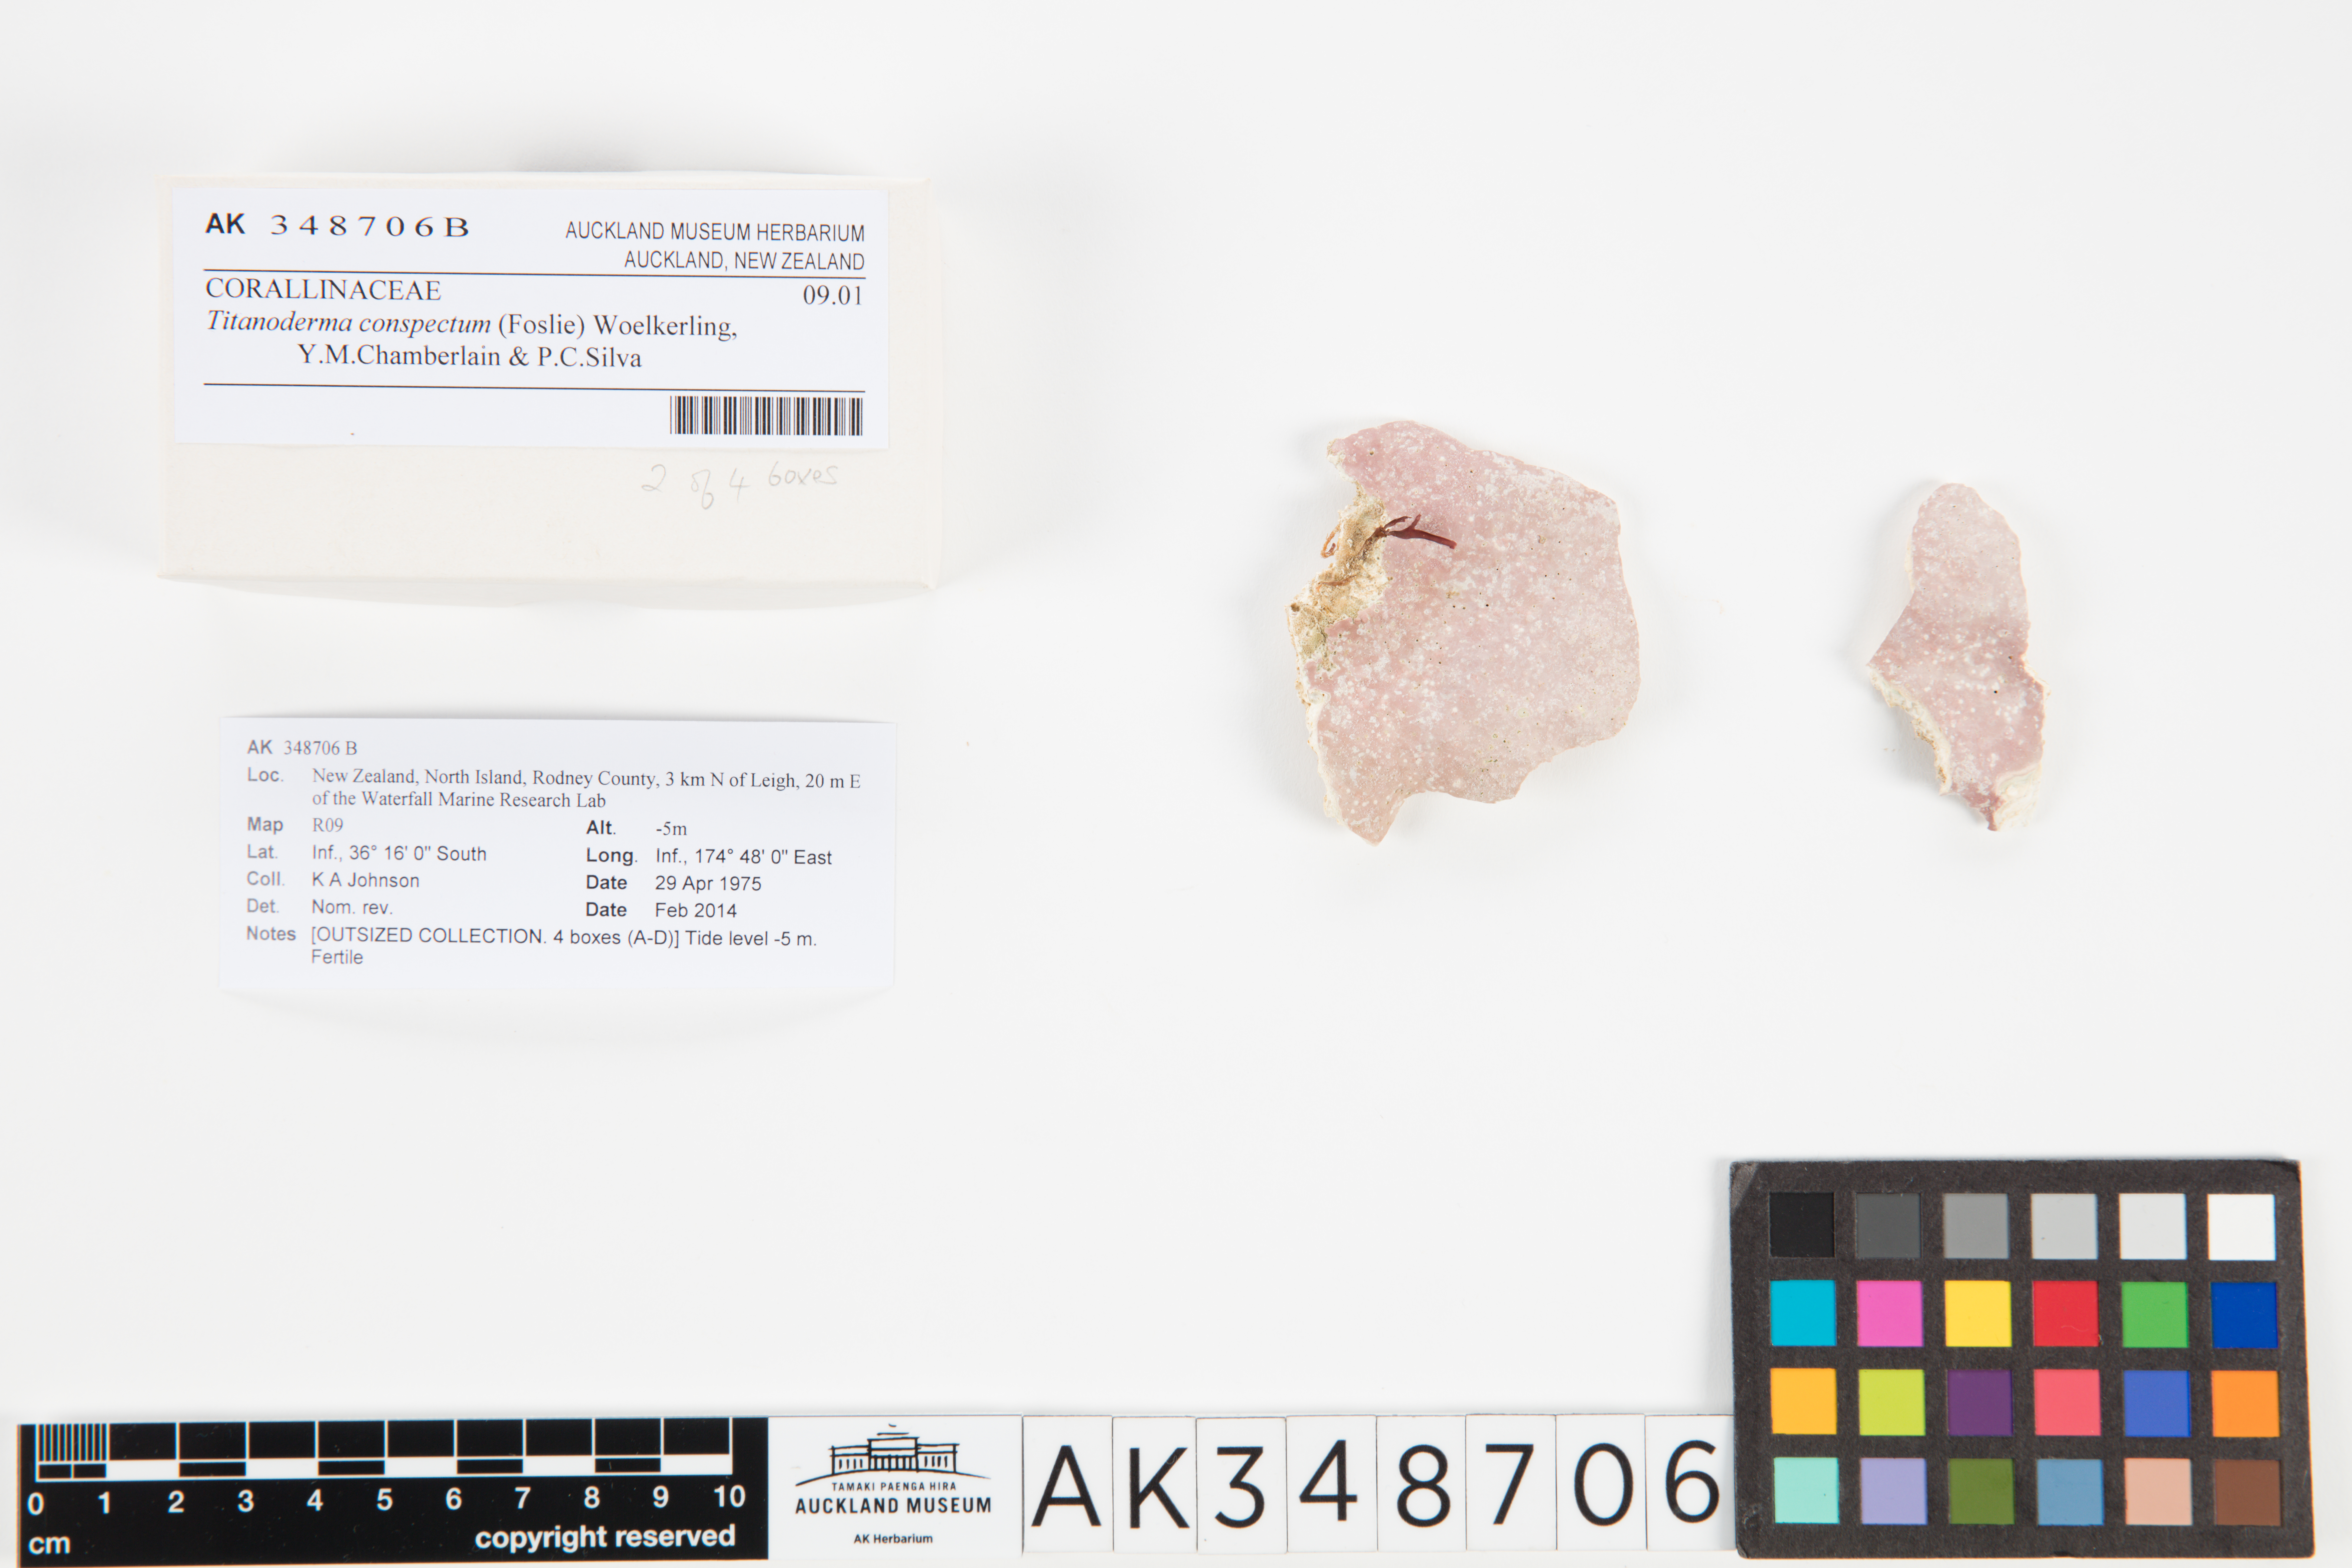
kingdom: Plantae
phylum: Rhodophyta
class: Florideophyceae
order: Corallinales
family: Lithophyllaceae
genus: Titanoderma
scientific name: Titanoderma conspectum
